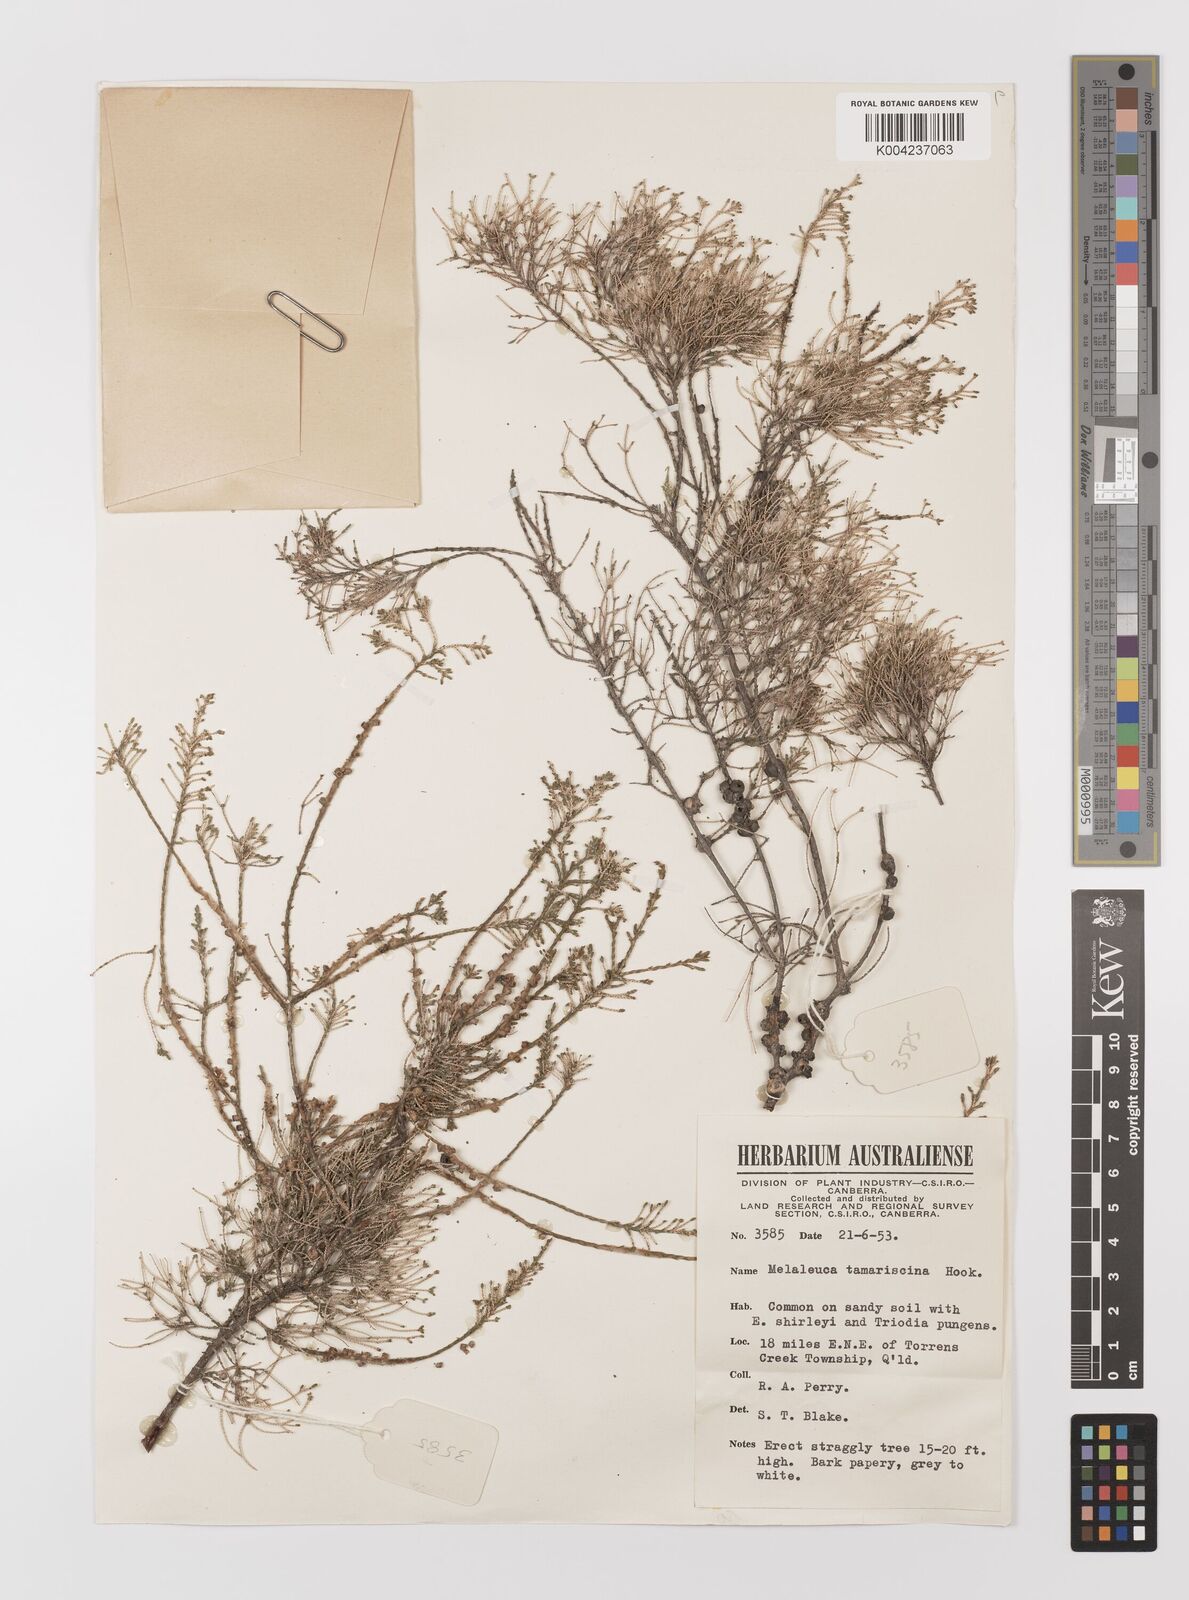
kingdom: Plantae
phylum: Tracheophyta
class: Magnoliopsida
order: Myrtales
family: Myrtaceae
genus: Melaleuca
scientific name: Melaleuca tamariscina
